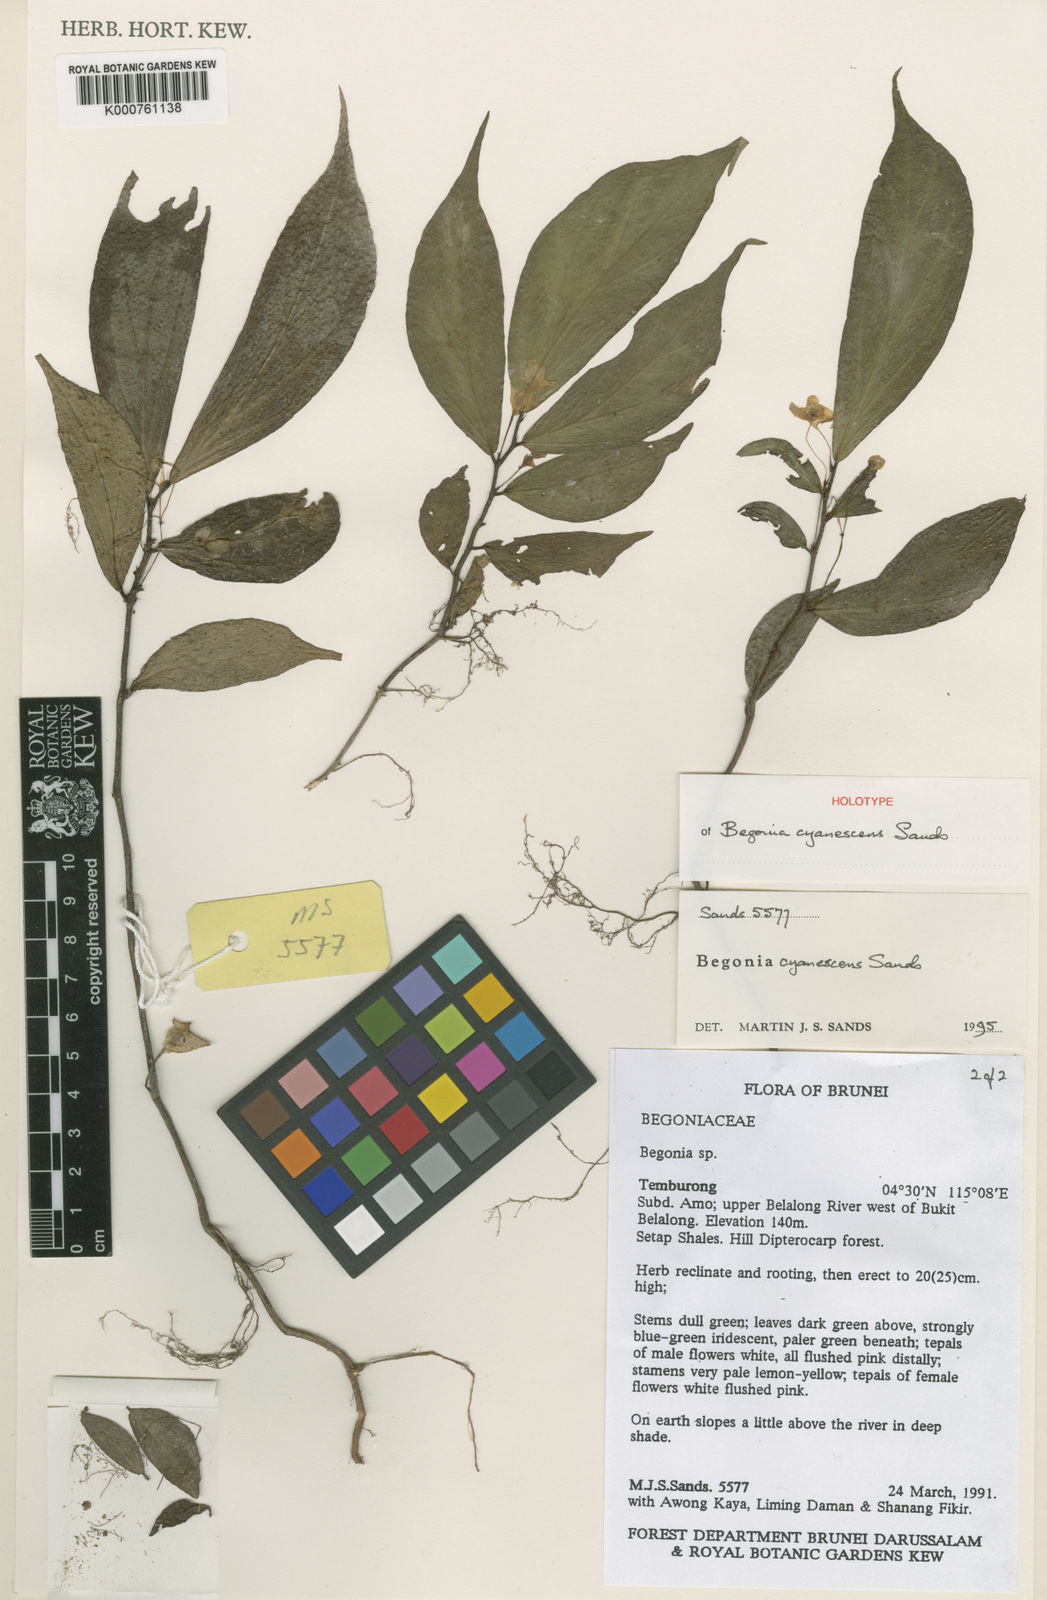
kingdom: Plantae
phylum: Tracheophyta
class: Magnoliopsida
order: Cucurbitales
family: Begoniaceae
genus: Begonia
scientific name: Begonia cyanescens
